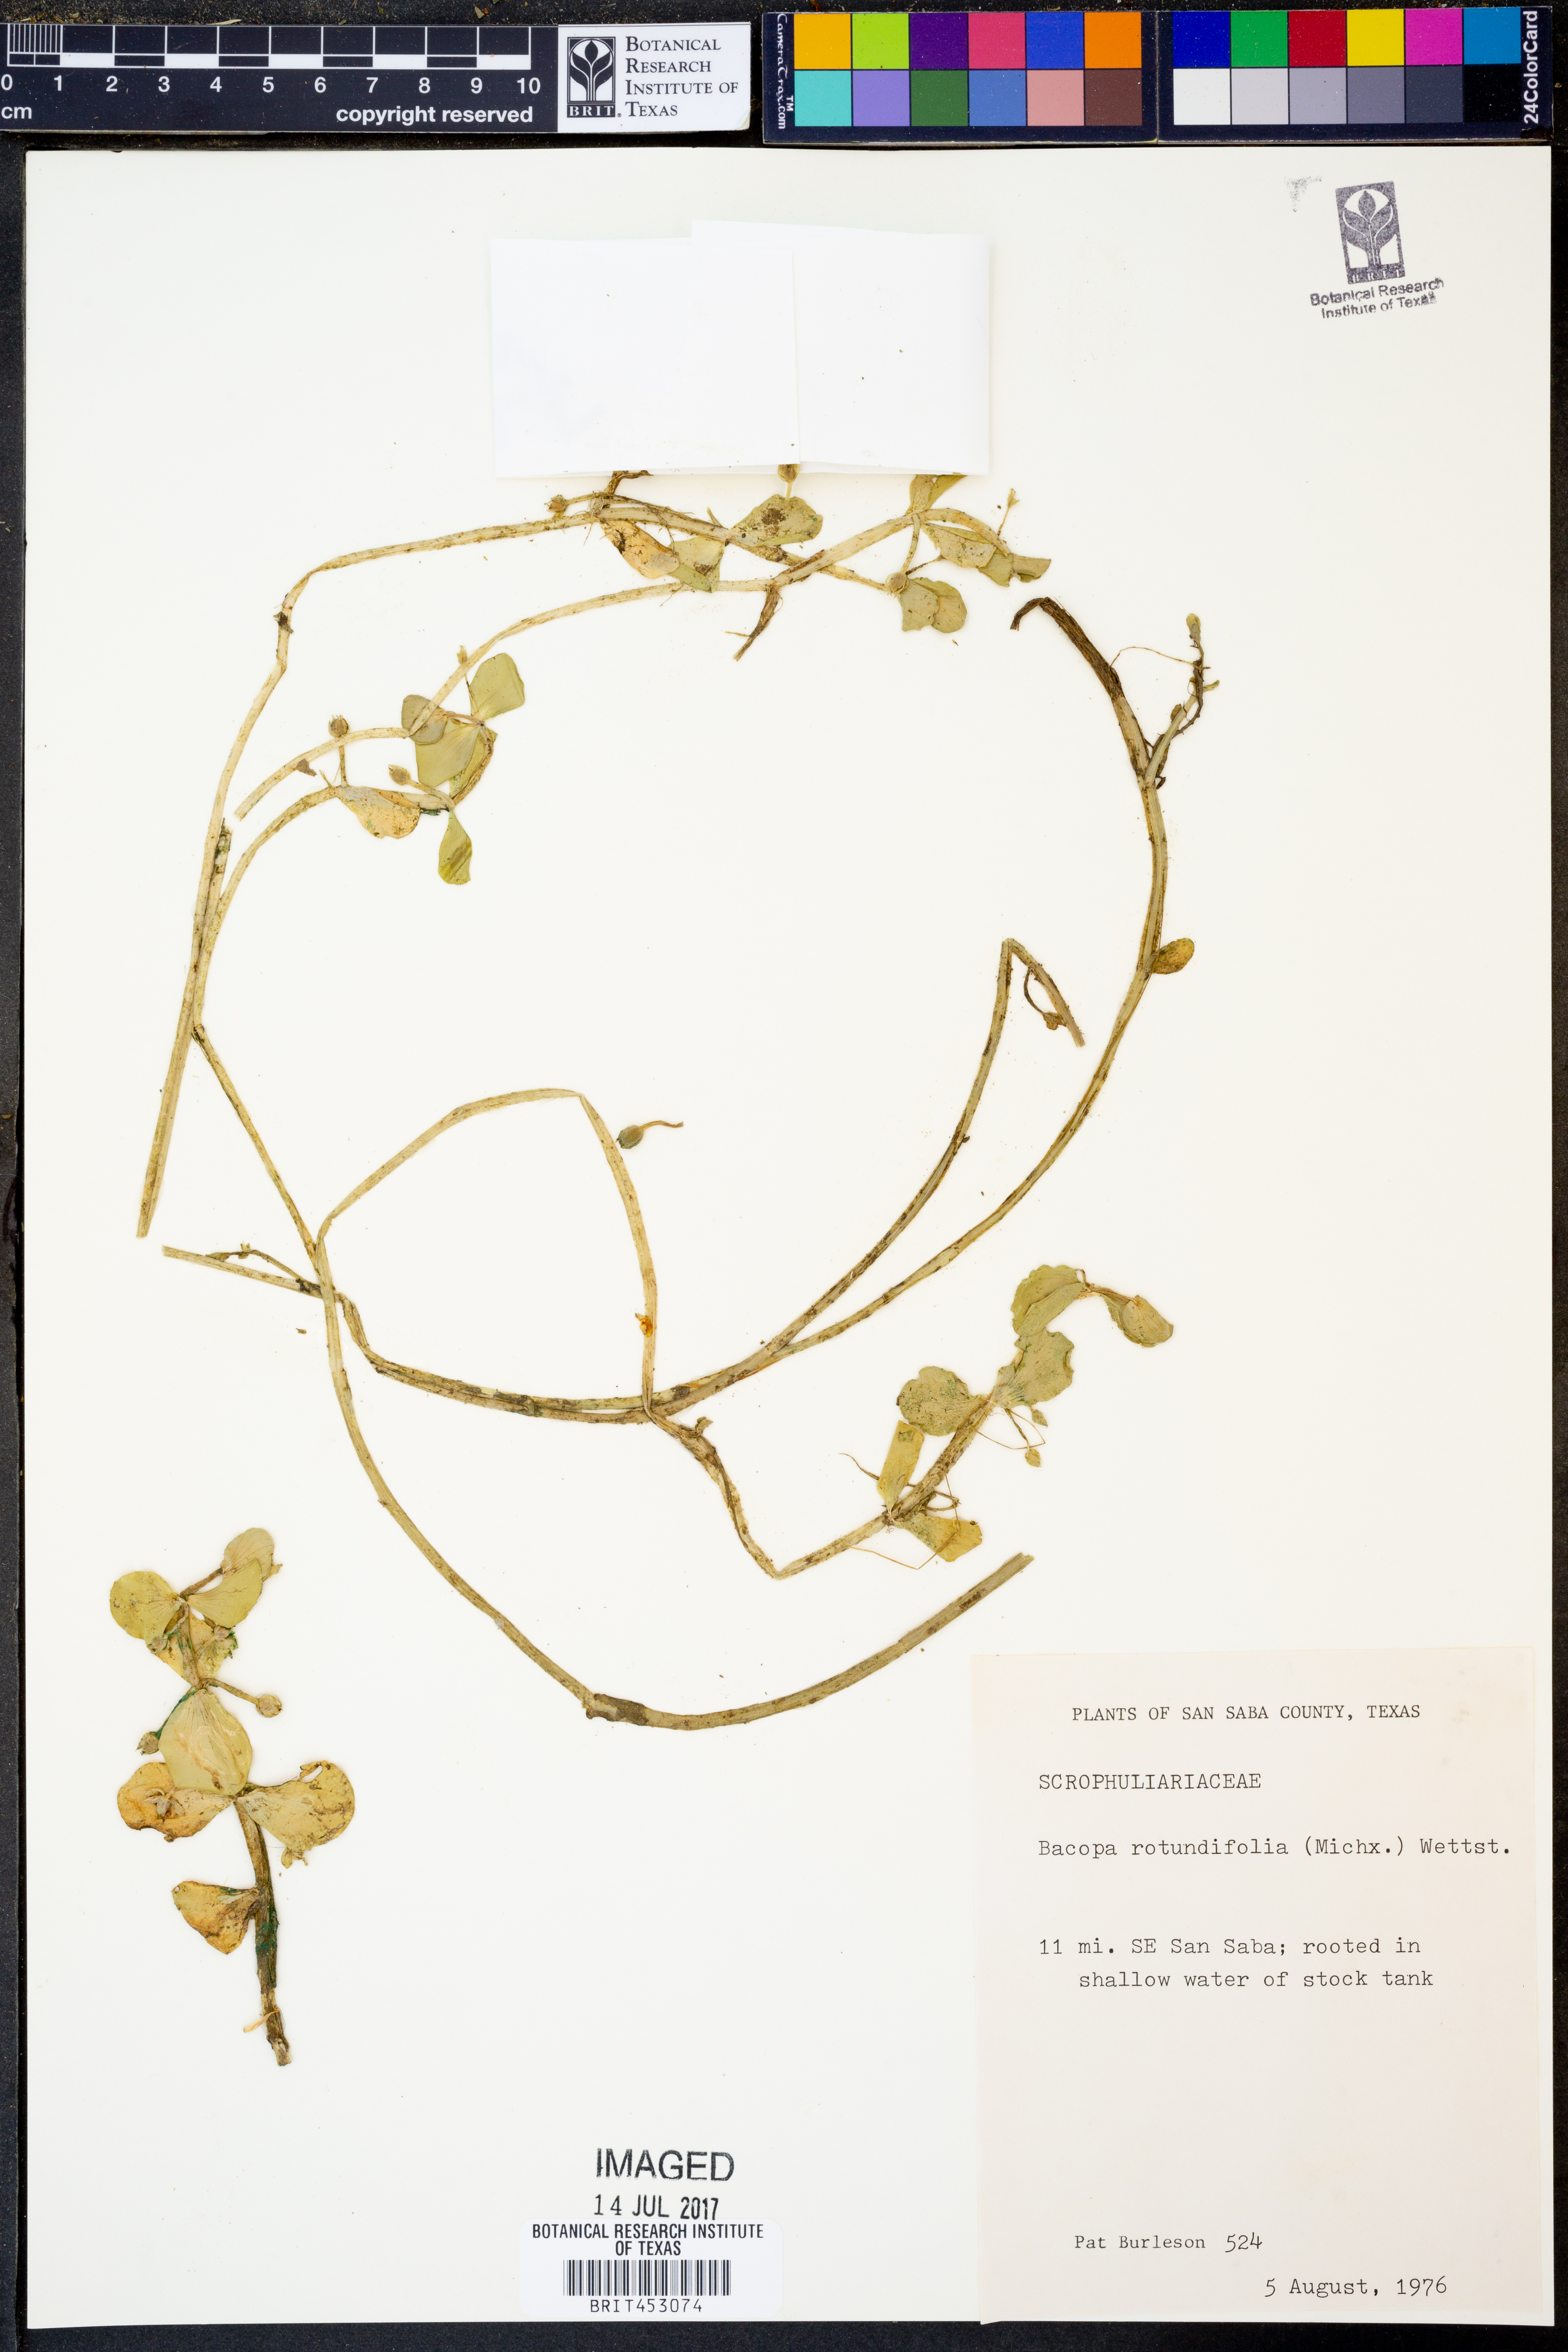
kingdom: Plantae
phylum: Tracheophyta
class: Magnoliopsida
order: Lamiales
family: Plantaginaceae
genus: Bacopa
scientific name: Bacopa rotundifolia
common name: Disc water hyssop
